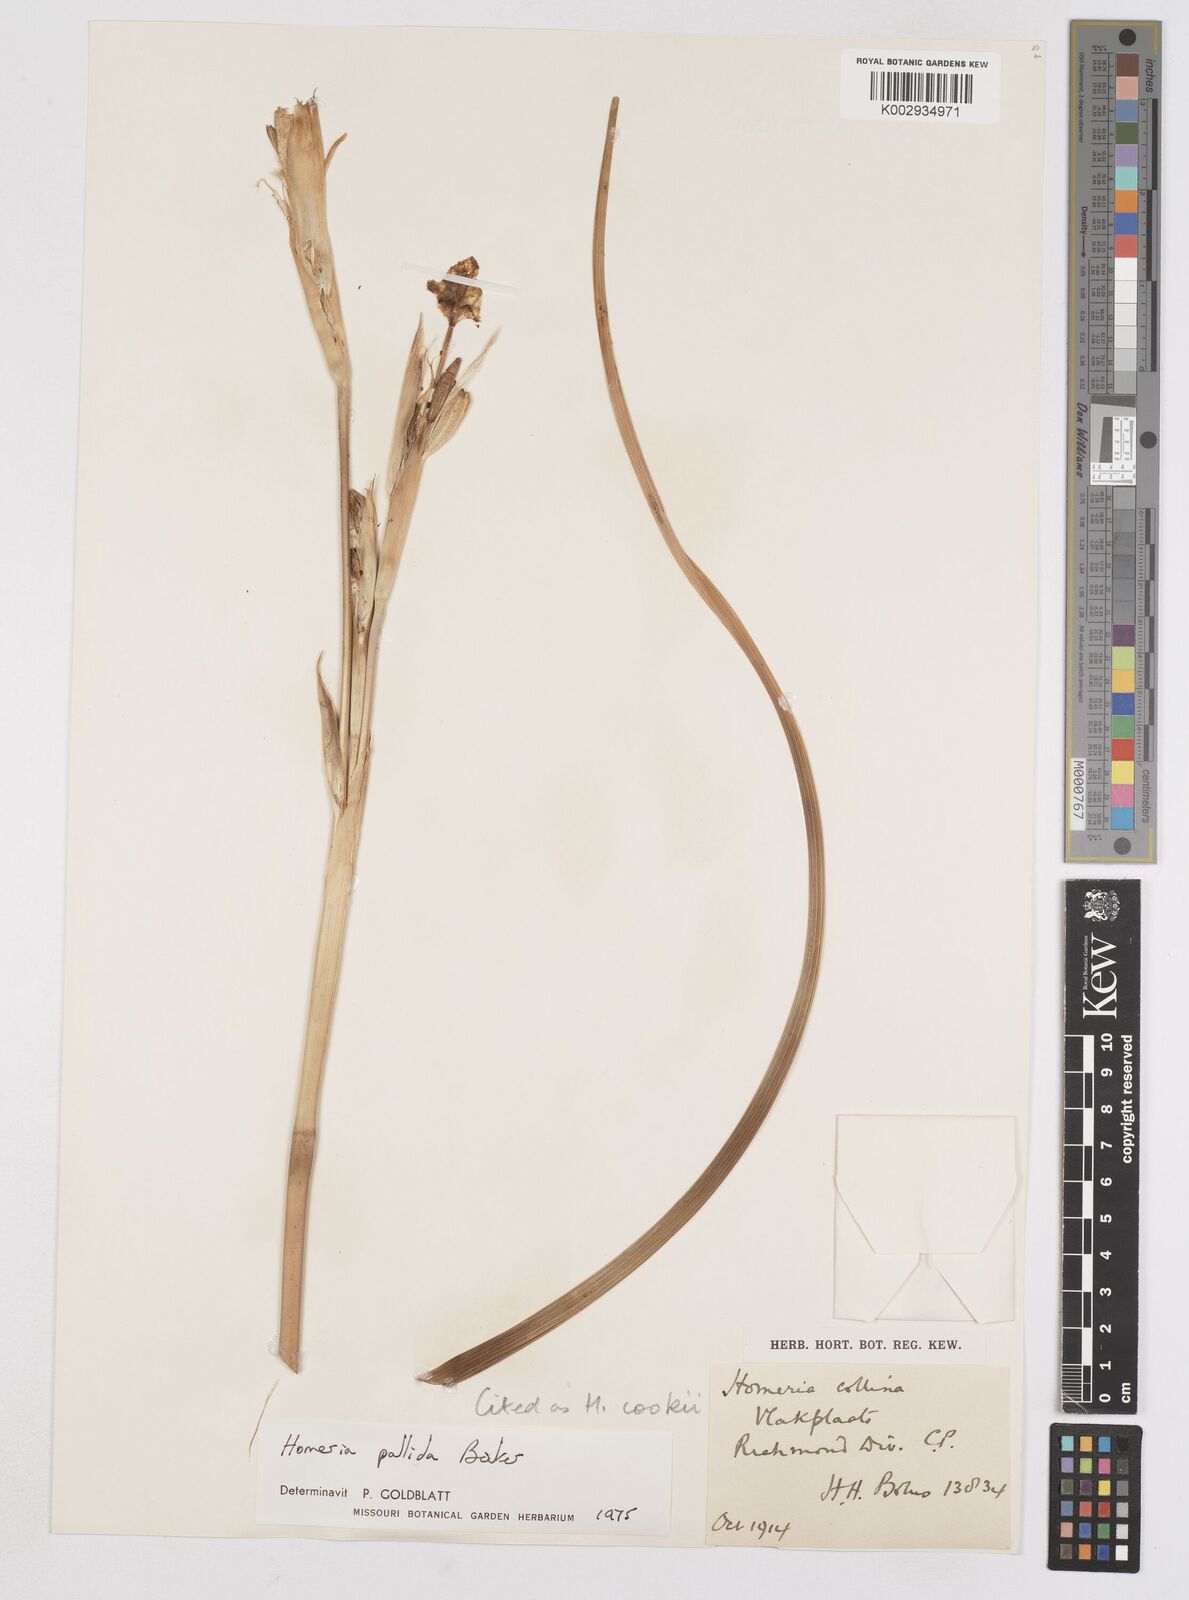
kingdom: Plantae
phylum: Tracheophyta
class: Liliopsida
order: Asparagales
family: Iridaceae
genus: Moraea
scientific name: Moraea cookii
